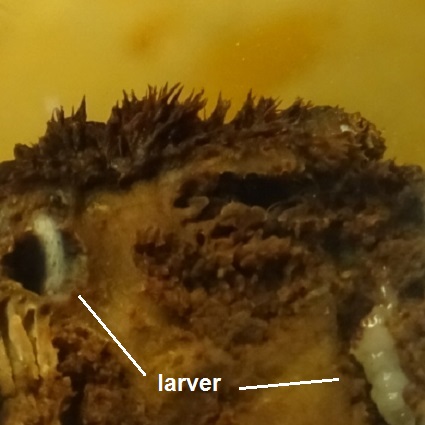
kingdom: Fungi
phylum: Basidiomycota
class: Agaricomycetes
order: Hymenochaetales
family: Hymenochaetaceae
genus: Mensularia
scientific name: Mensularia nodulosa
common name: bøge-spejlporesvamp
